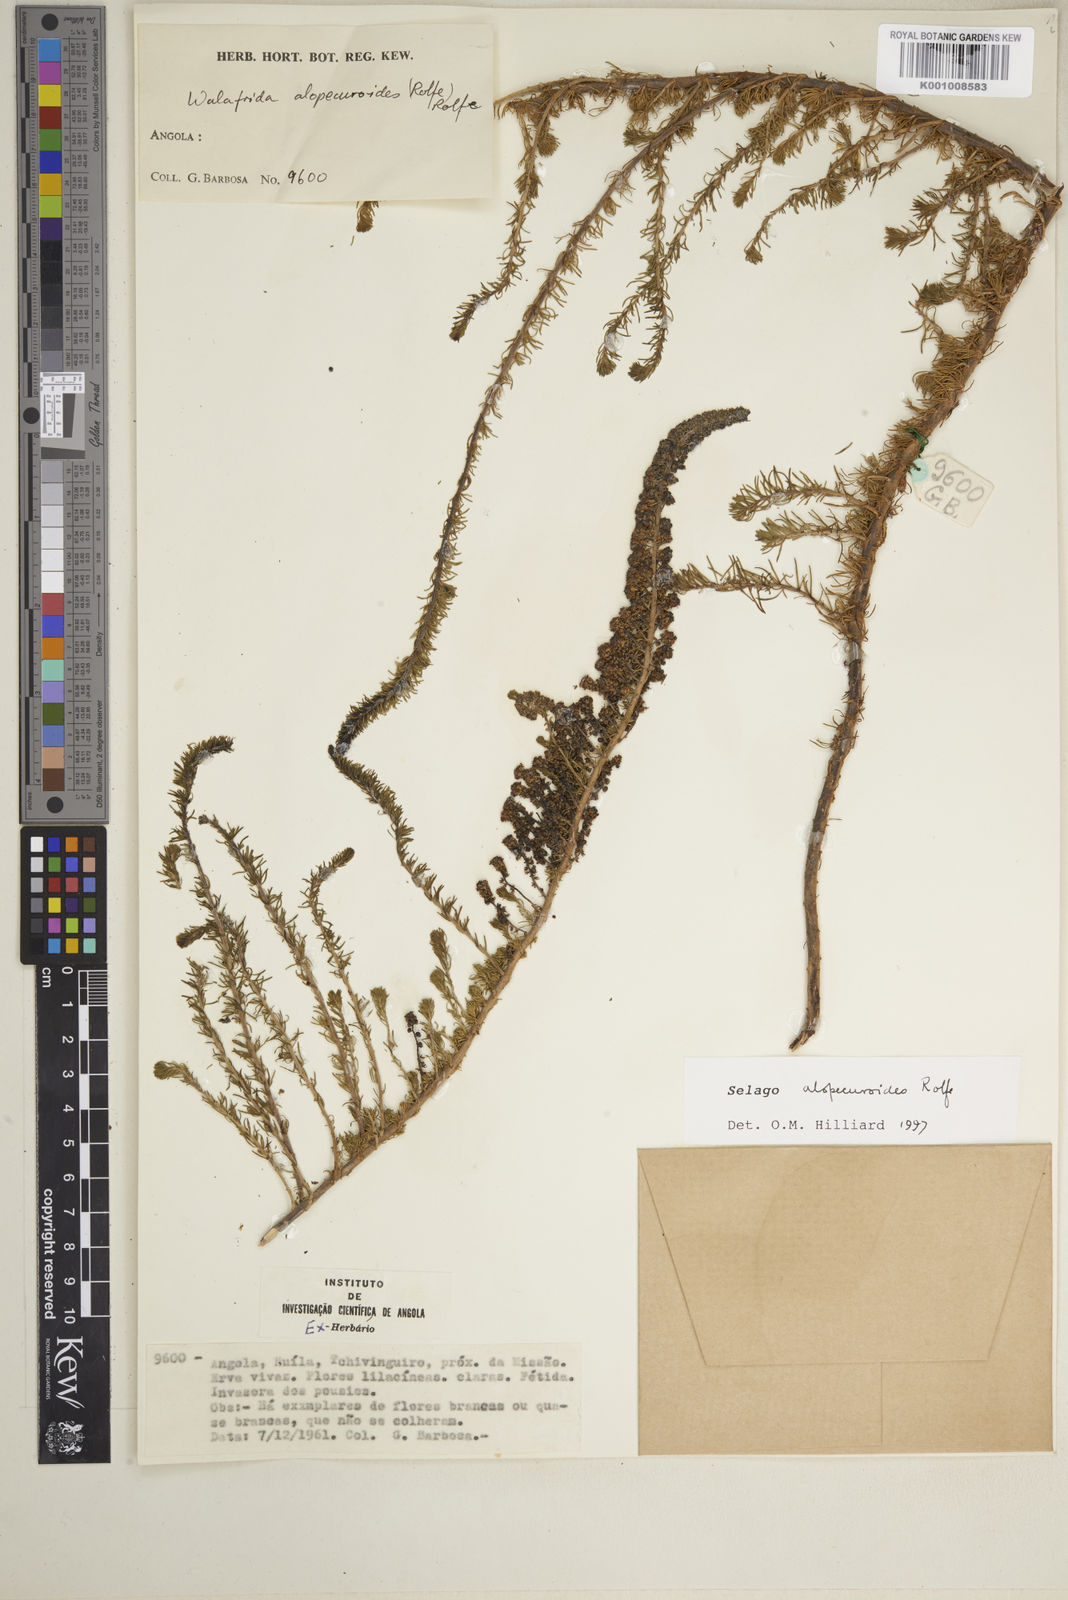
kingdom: Plantae
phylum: Tracheophyta
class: Magnoliopsida
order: Lamiales
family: Scrophulariaceae
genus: Selago
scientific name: Selago alopecuroides
